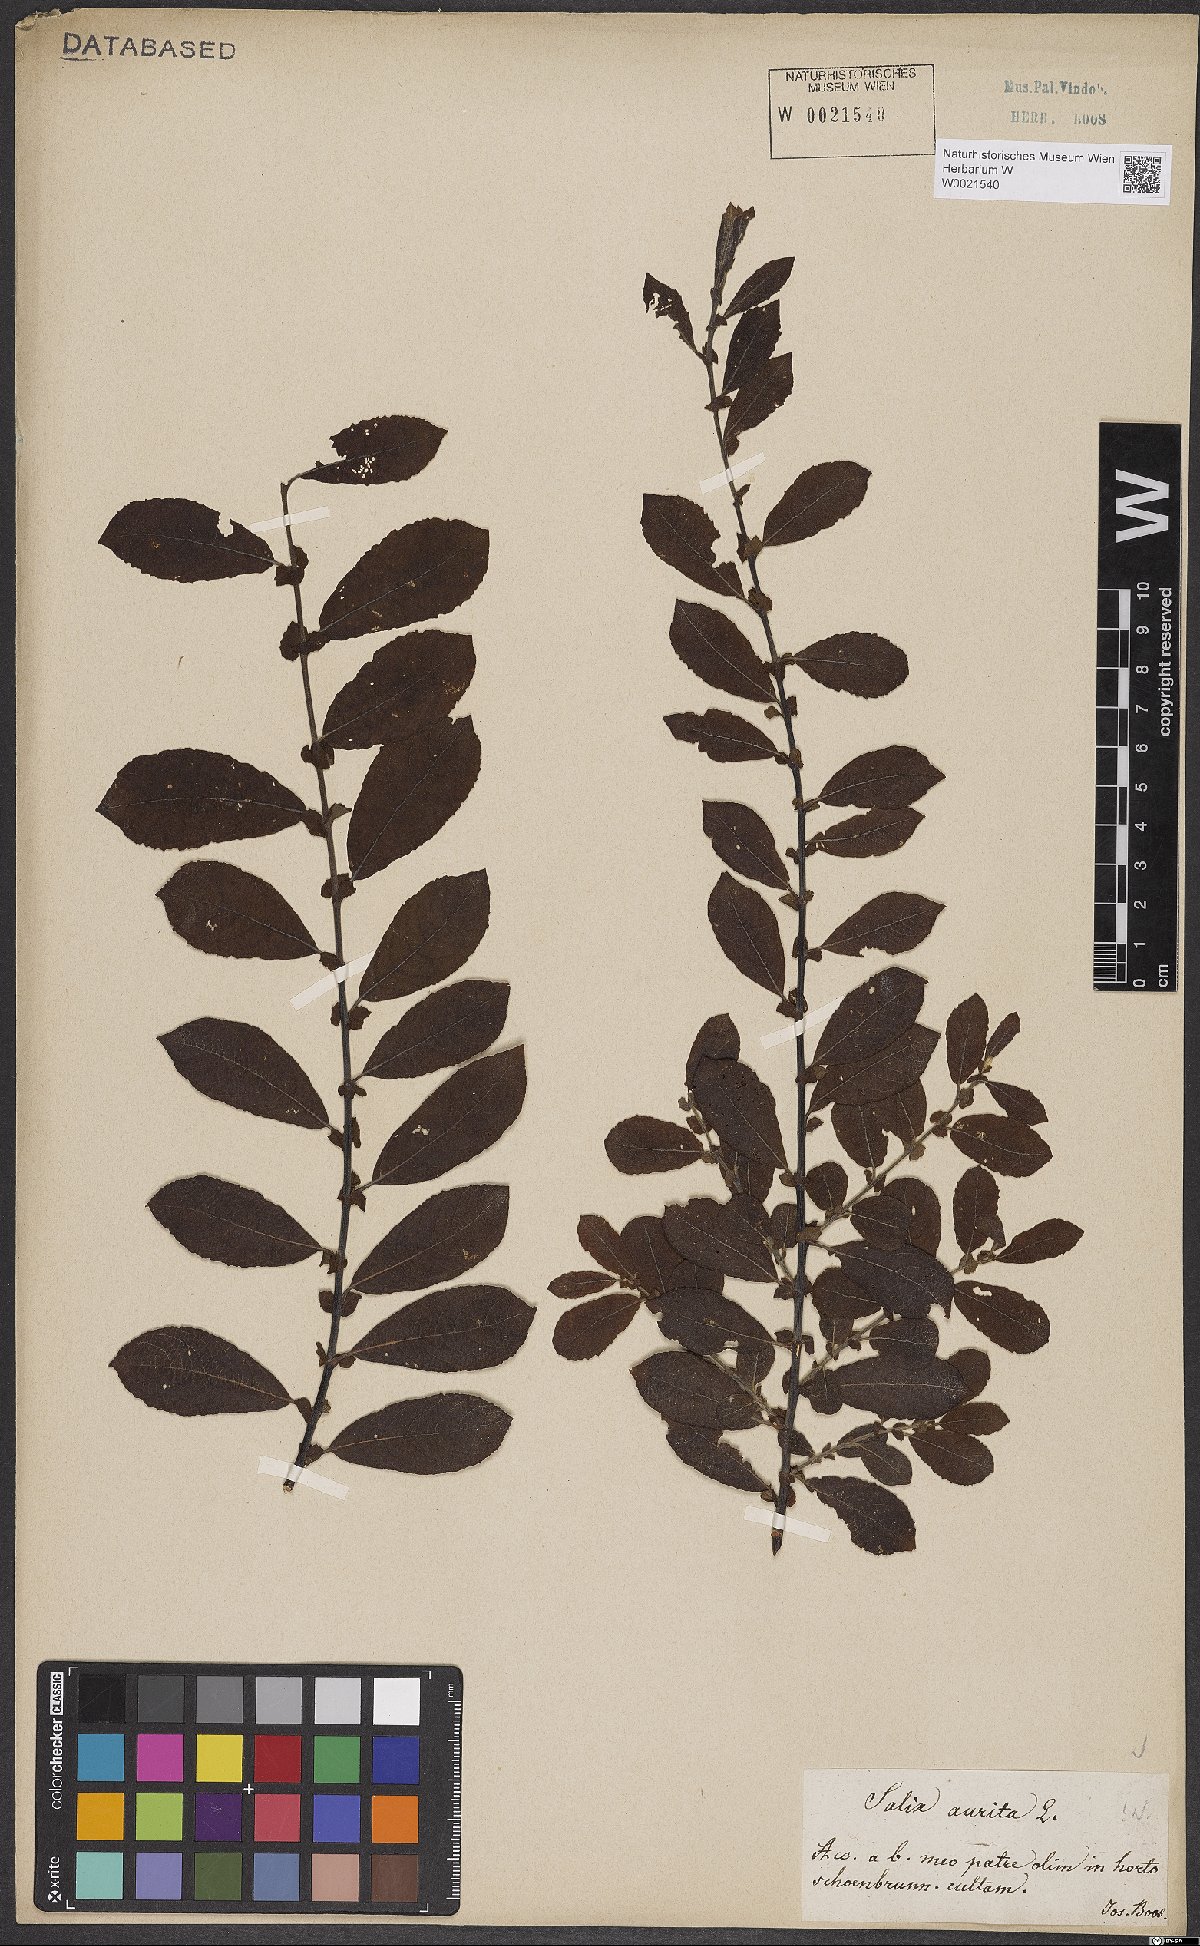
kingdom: Plantae
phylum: Tracheophyta
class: Magnoliopsida
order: Malpighiales
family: Salicaceae
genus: Salix
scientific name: Salix aurita
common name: Eared willow
